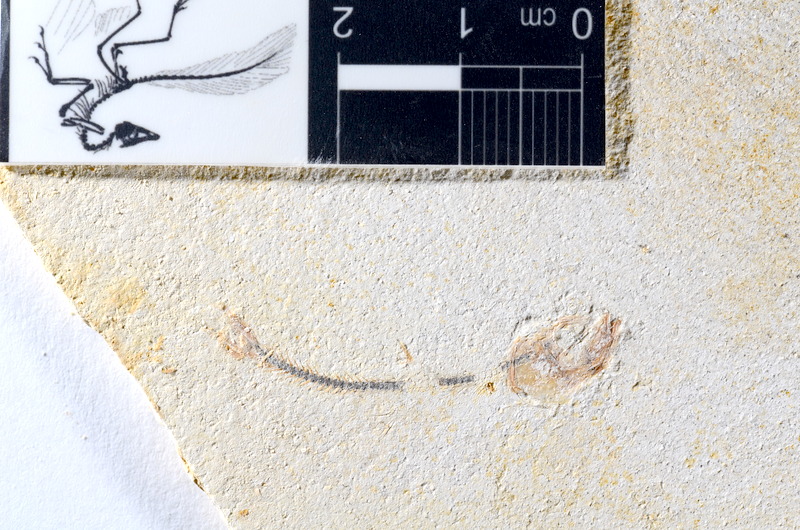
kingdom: Animalia
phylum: Chordata
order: Salmoniformes
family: Orthogonikleithridae
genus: Orthogonikleithrus
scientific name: Orthogonikleithrus hoelli
